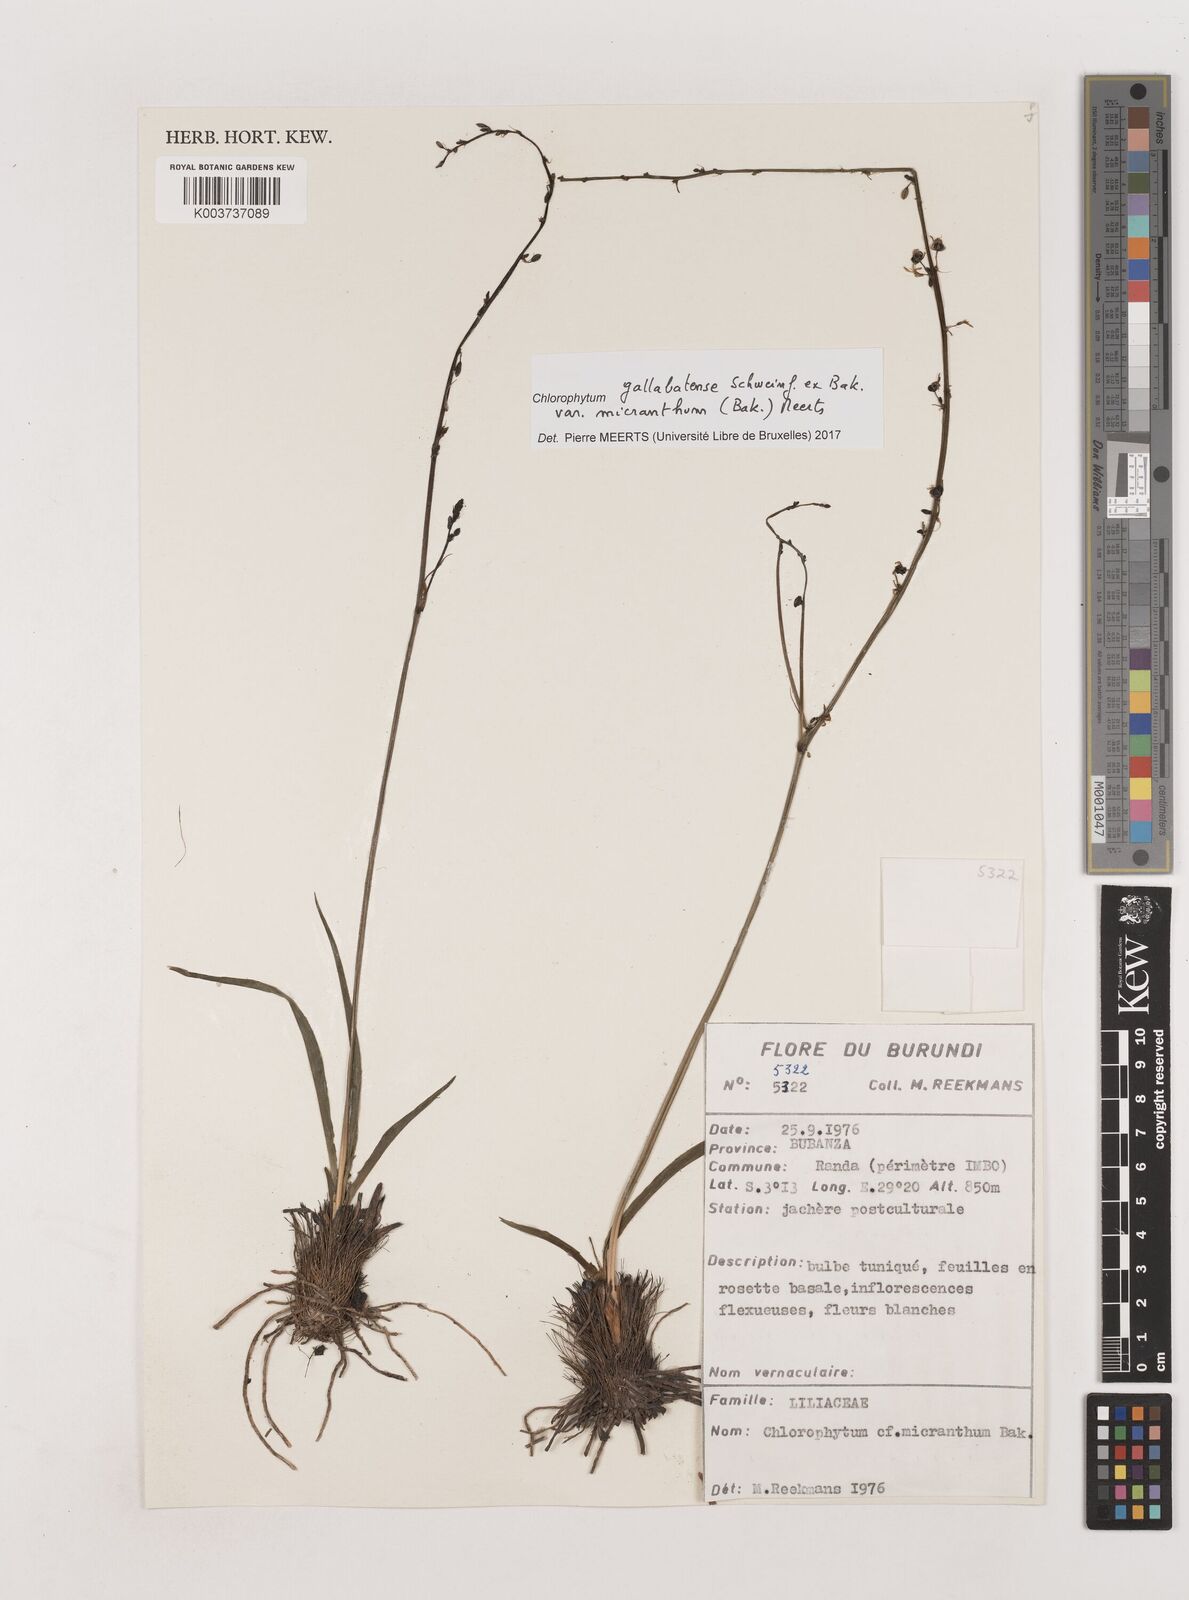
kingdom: Plantae
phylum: Tracheophyta
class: Liliopsida
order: Asparagales
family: Asparagaceae
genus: Chlorophytum
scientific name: Chlorophytum gallabatense
